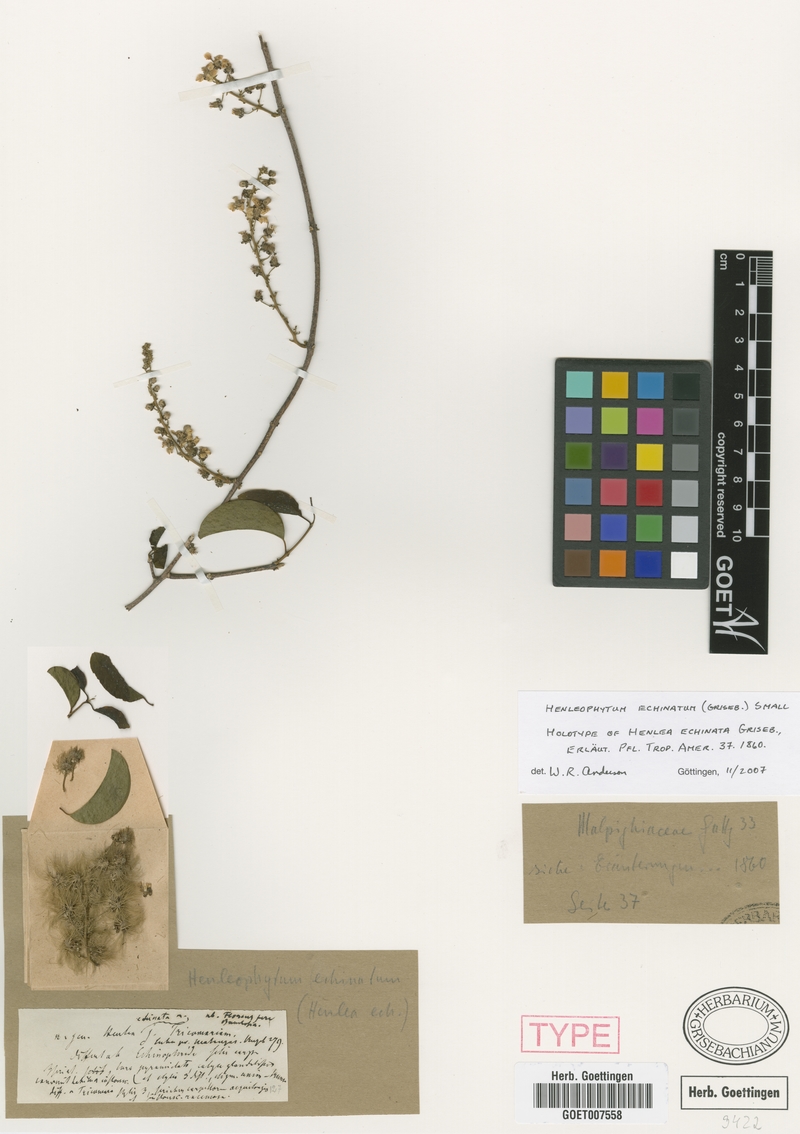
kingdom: Plantae
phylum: Tracheophyta
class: Magnoliopsida
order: Malpighiales
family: Malpighiaceae
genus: Henleophytum
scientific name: Henleophytum echinatum
